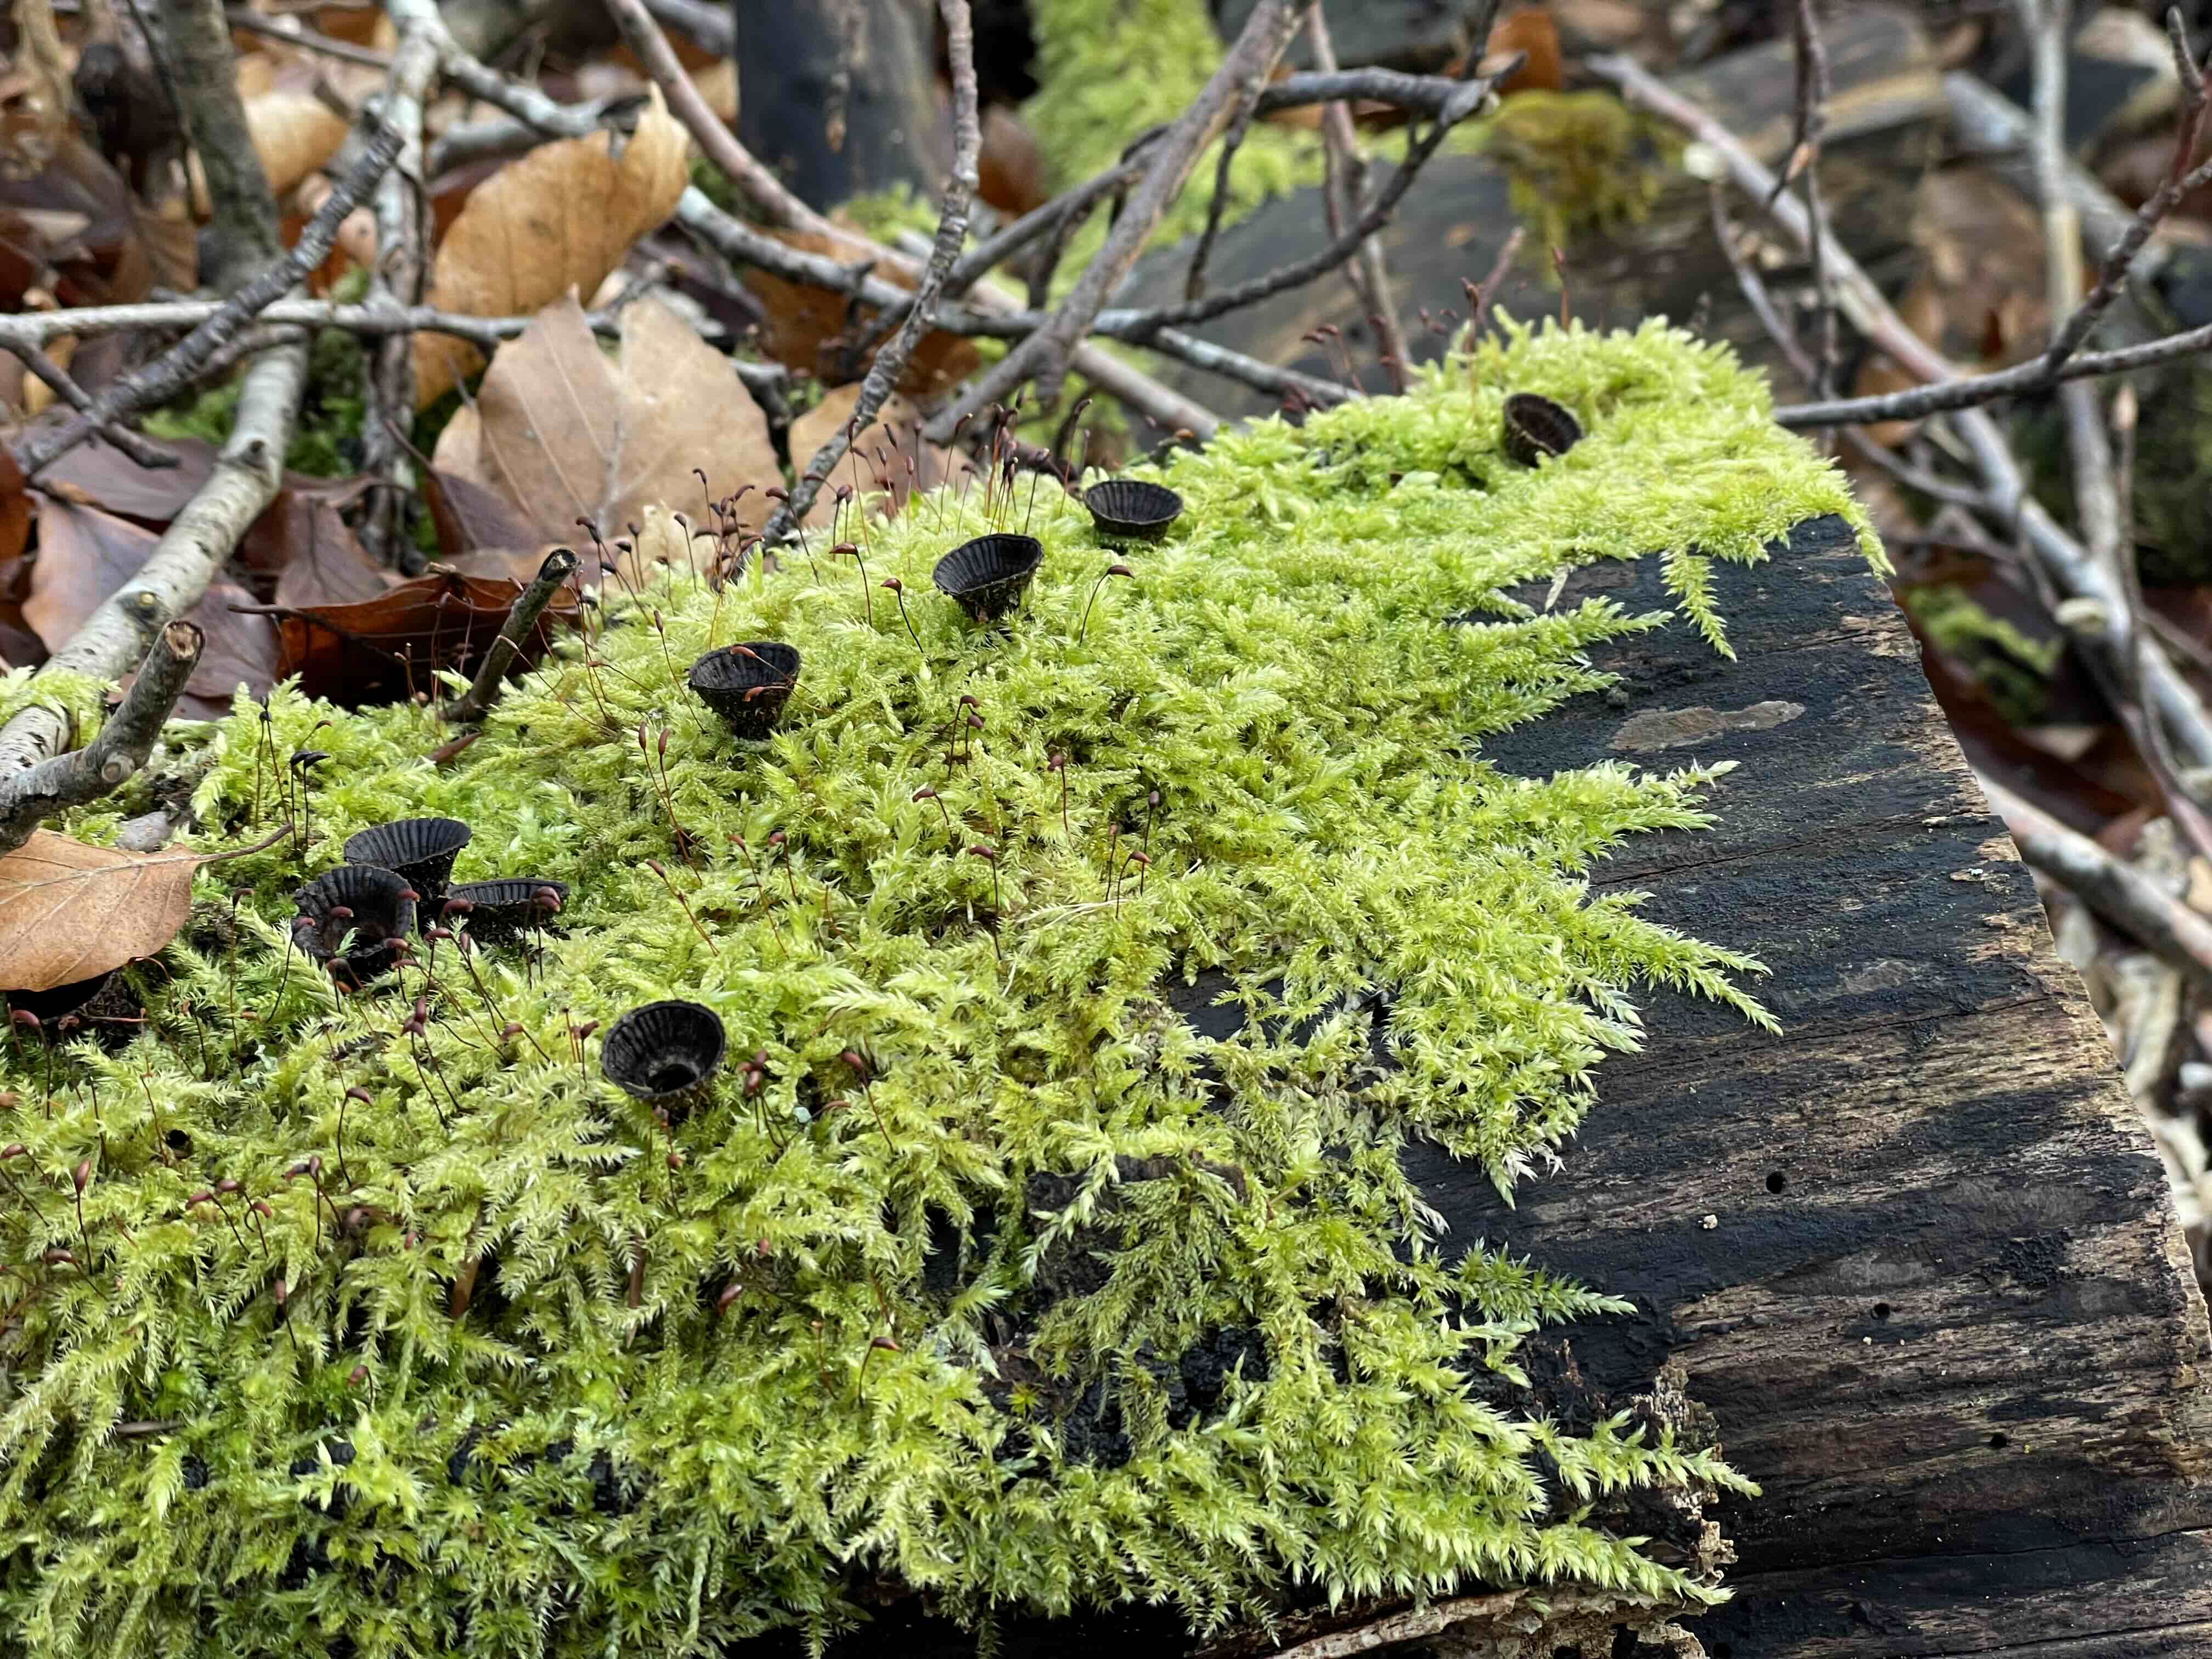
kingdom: Fungi
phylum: Basidiomycota
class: Agaricomycetes
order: Agaricales
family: Agaricaceae
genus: Cyathus
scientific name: Cyathus striatus
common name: stribet redesvamp
